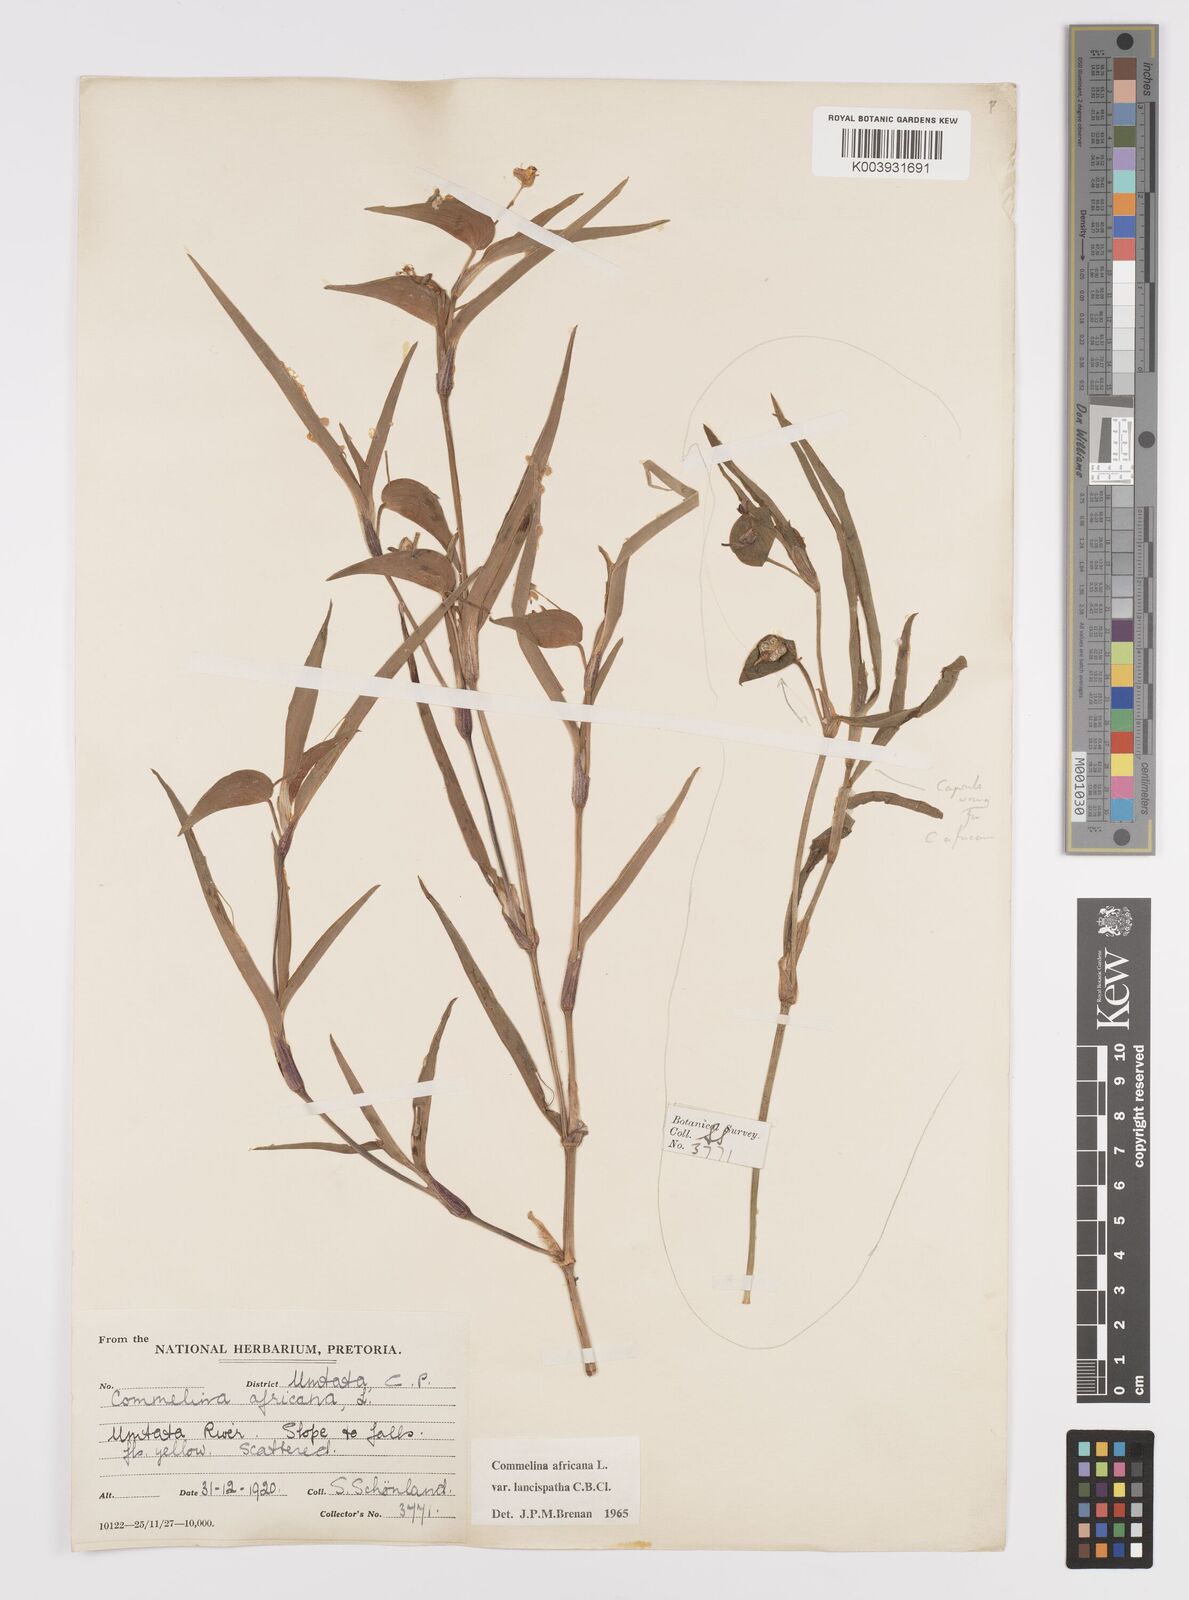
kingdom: Plantae
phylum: Tracheophyta
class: Liliopsida
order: Commelinales
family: Commelinaceae
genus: Commelina
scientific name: Commelina africana
